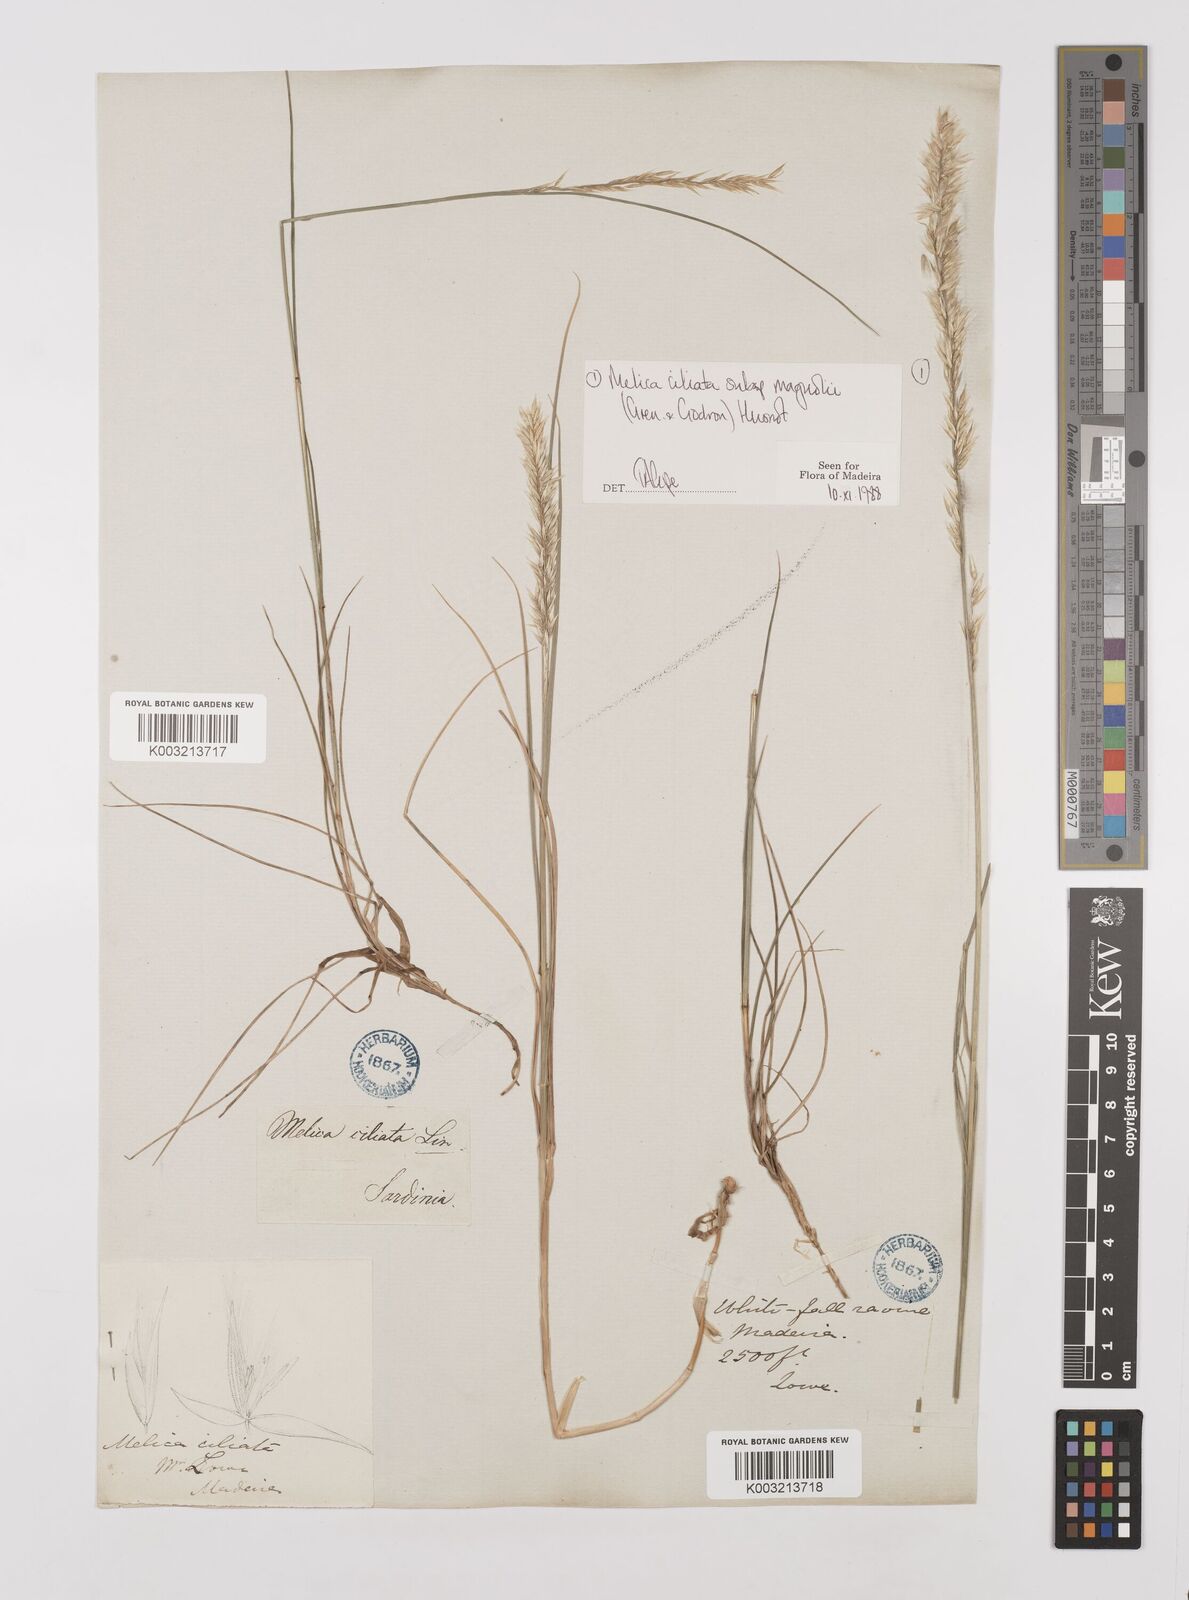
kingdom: Plantae
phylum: Tracheophyta
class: Liliopsida
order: Poales
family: Poaceae
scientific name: Poaceae
